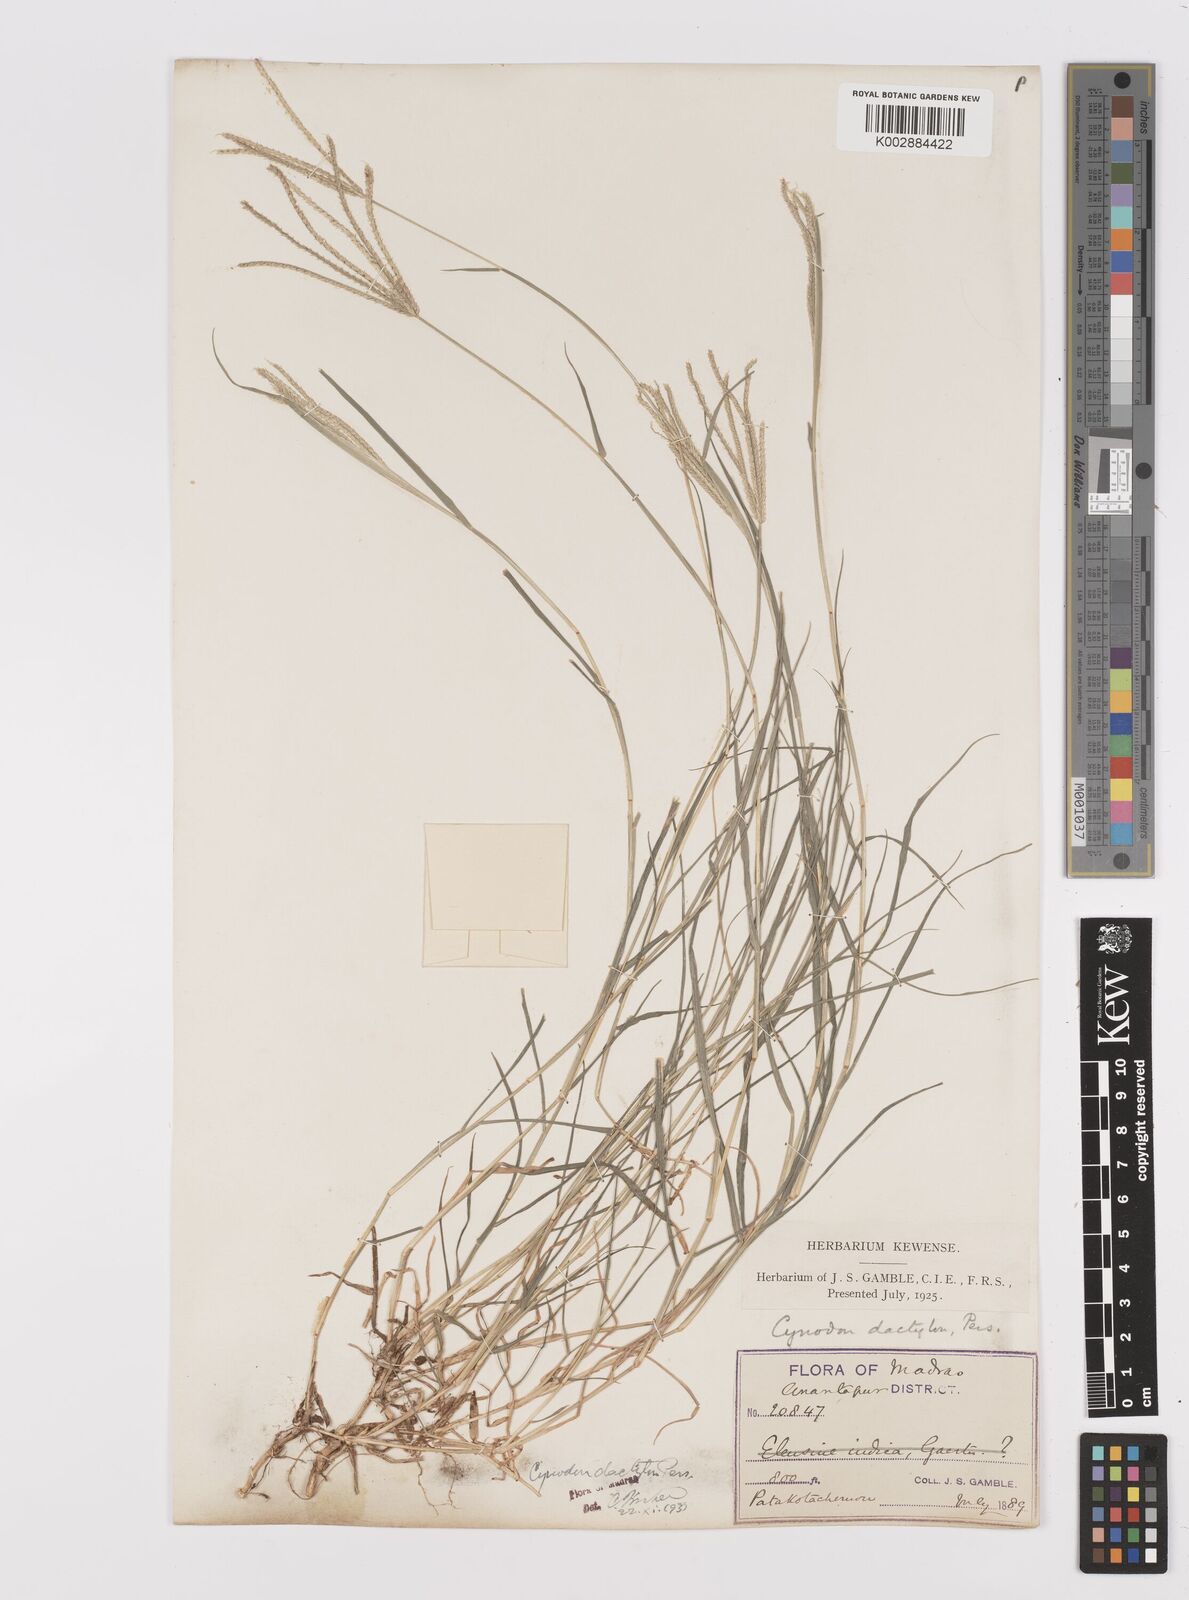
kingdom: Plantae
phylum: Tracheophyta
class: Liliopsida
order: Poales
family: Poaceae
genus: Cynodon
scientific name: Cynodon dactylon
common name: Bermuda grass
